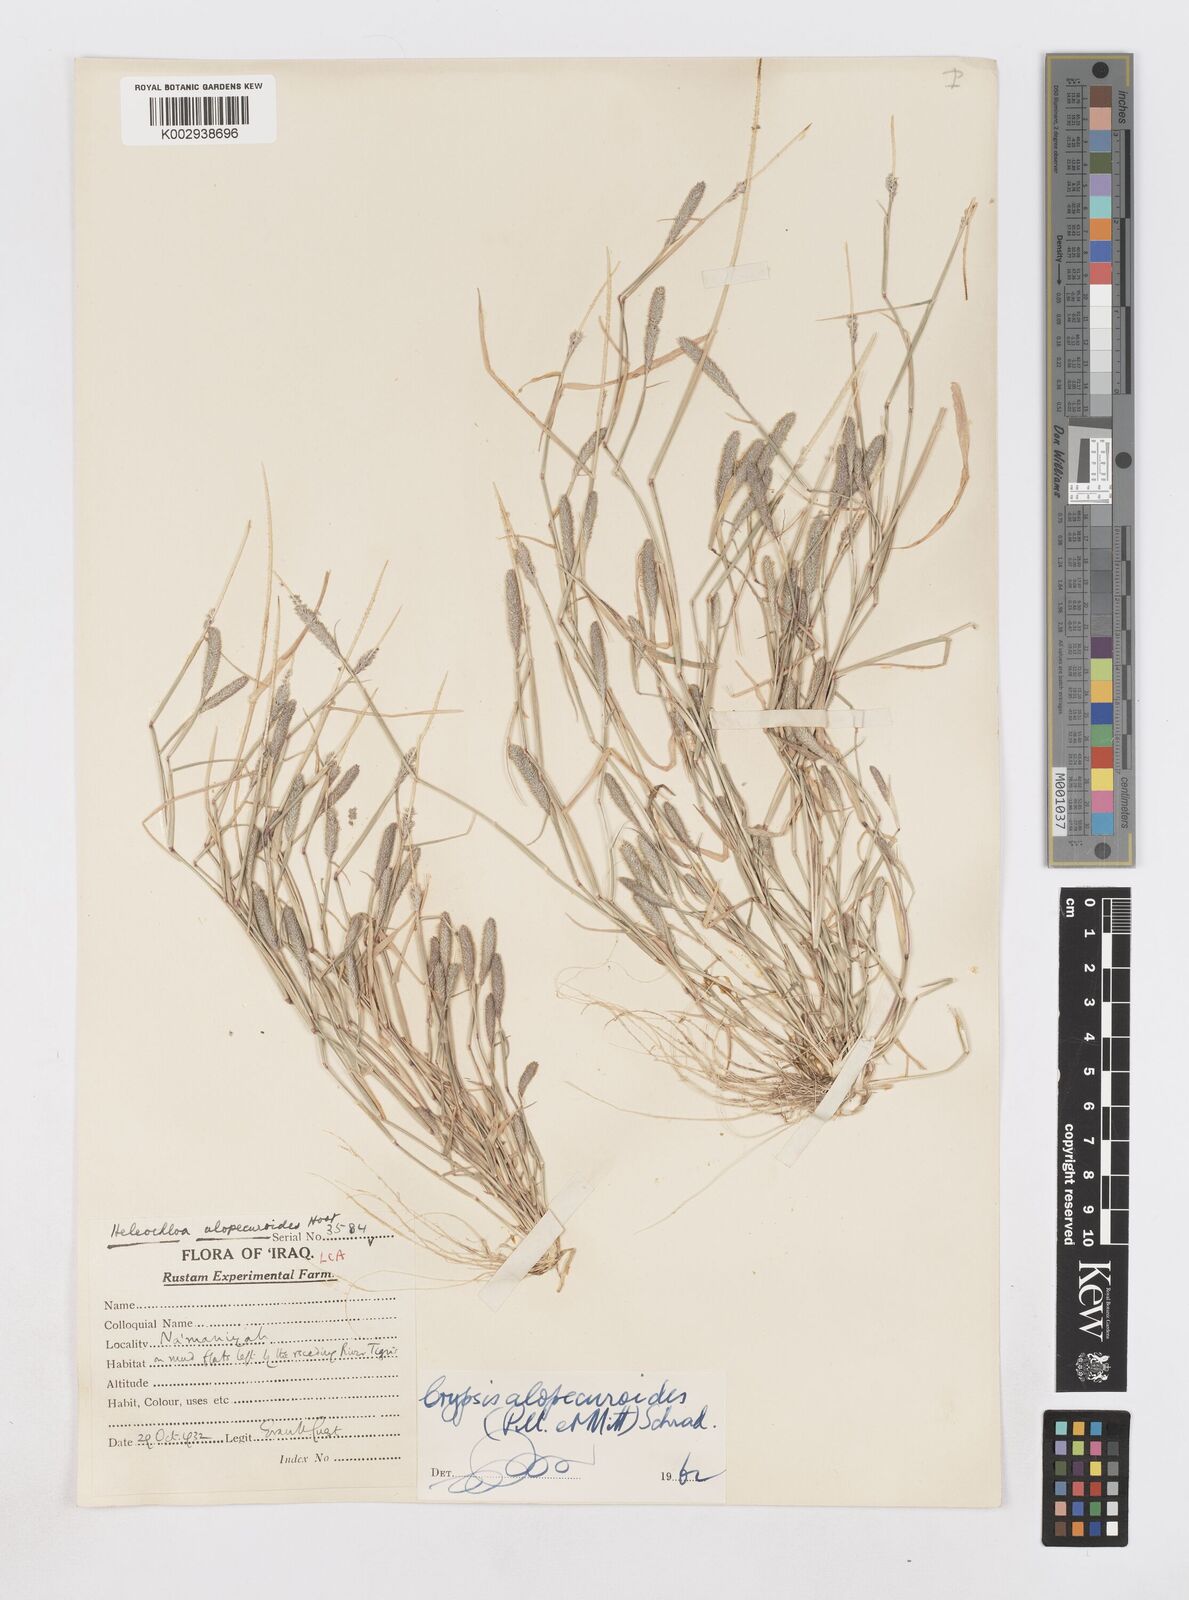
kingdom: Plantae
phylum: Tracheophyta
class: Liliopsida
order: Poales
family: Poaceae
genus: Sporobolus
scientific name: Sporobolus alopecuroides
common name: Foxtail pricklegrass
